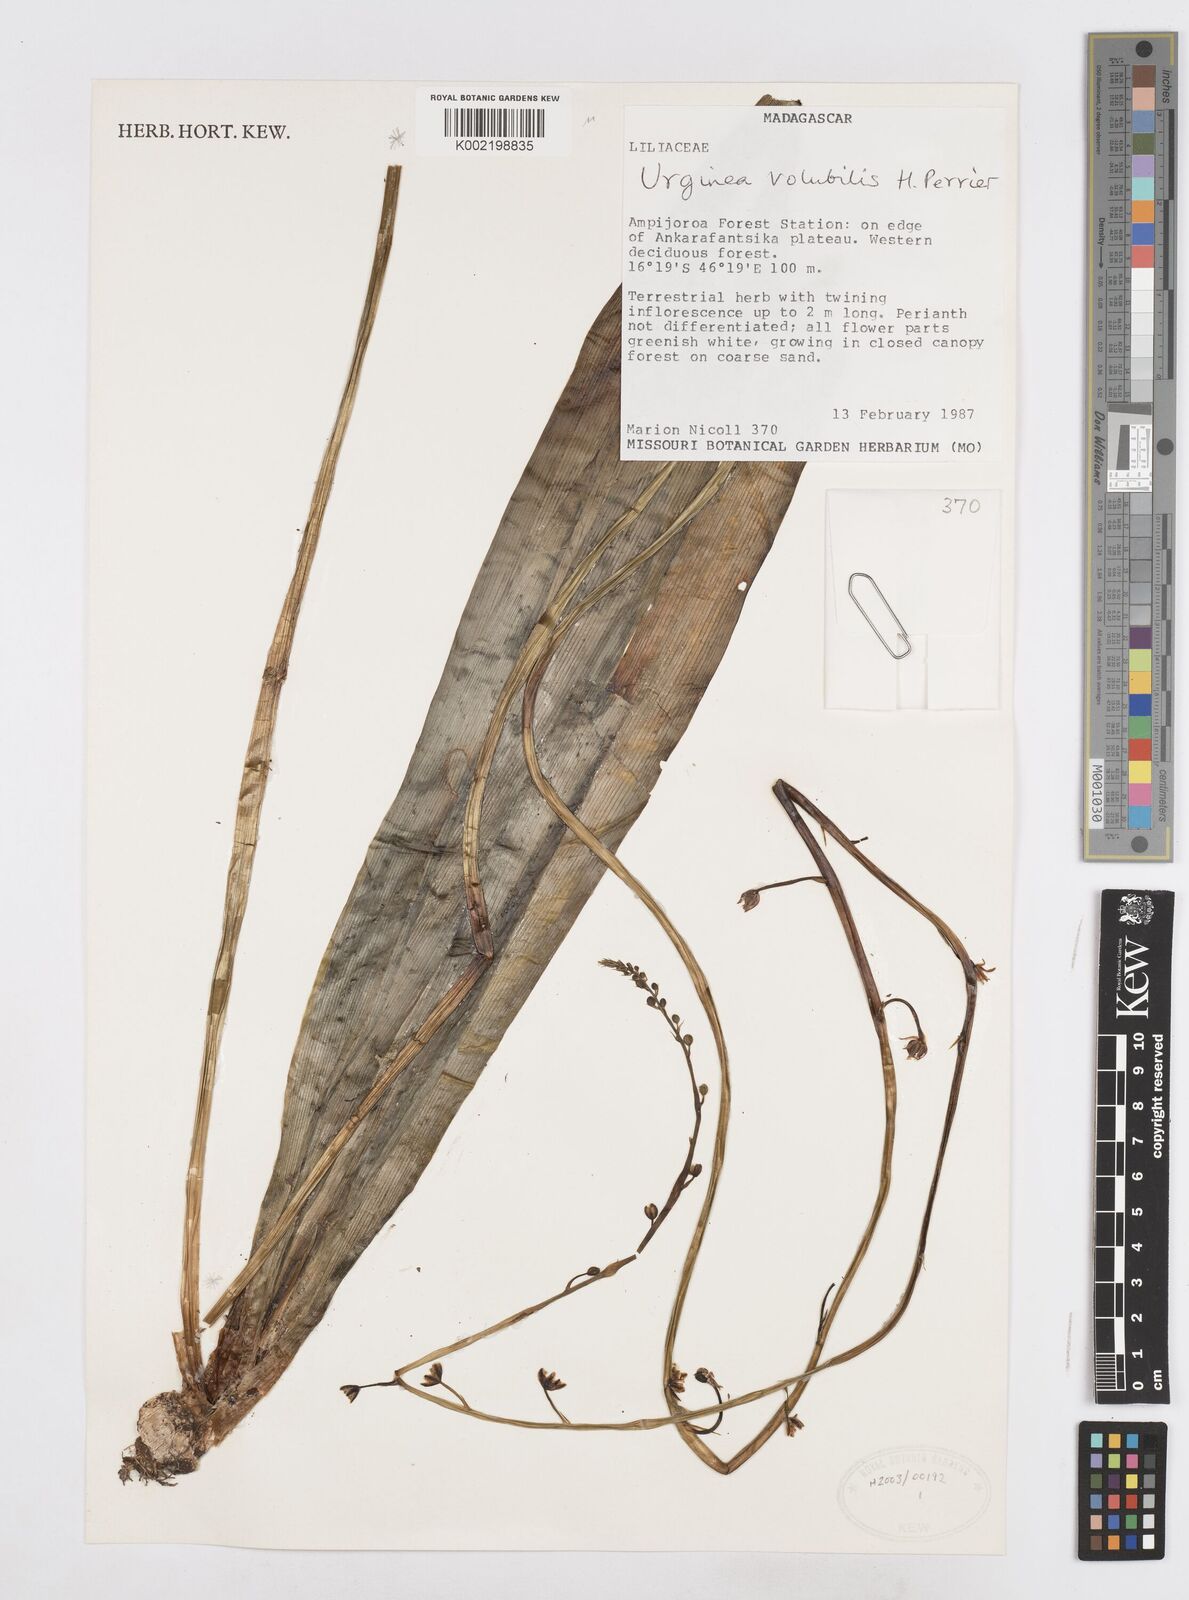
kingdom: Plantae
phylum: Tracheophyta
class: Liliopsida
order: Asparagales
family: Asparagaceae
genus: Drimia
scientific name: Drimia
